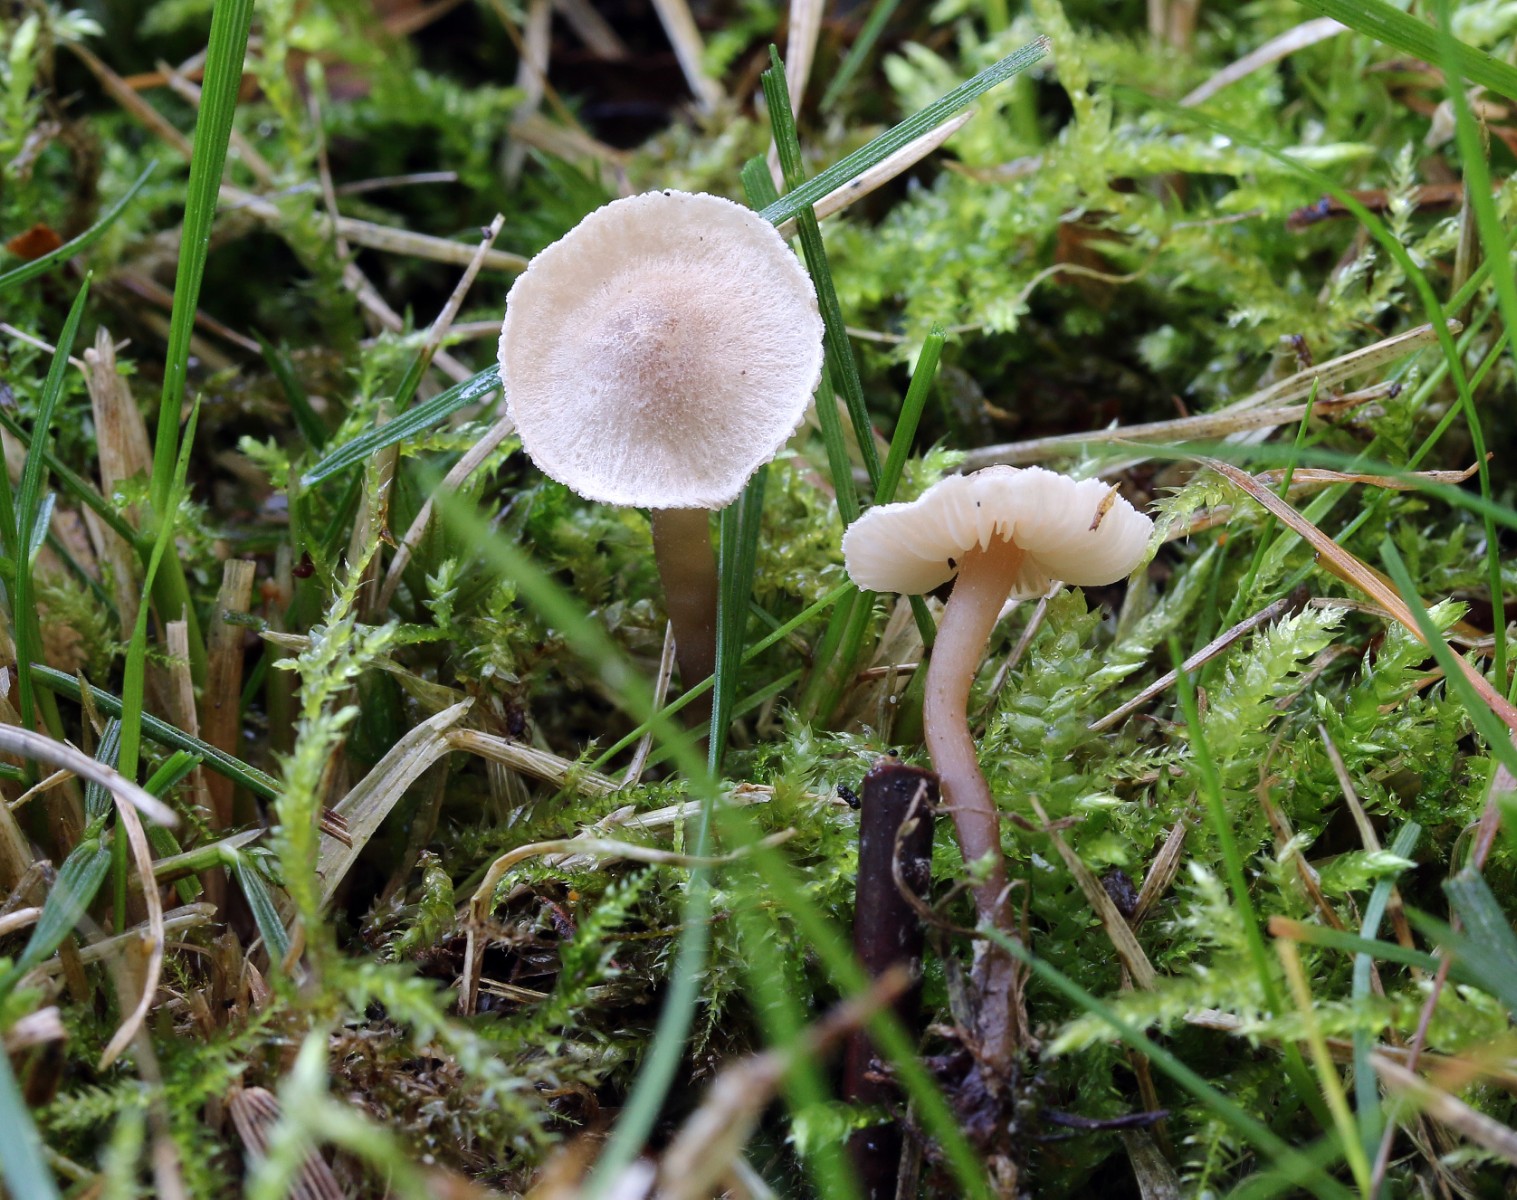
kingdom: Fungi
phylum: Basidiomycota
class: Agaricomycetes
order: Agaricales
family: Lyophyllaceae
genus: Lyophyllum
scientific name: Lyophyllum tomentellum
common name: finfiltet gråblad
